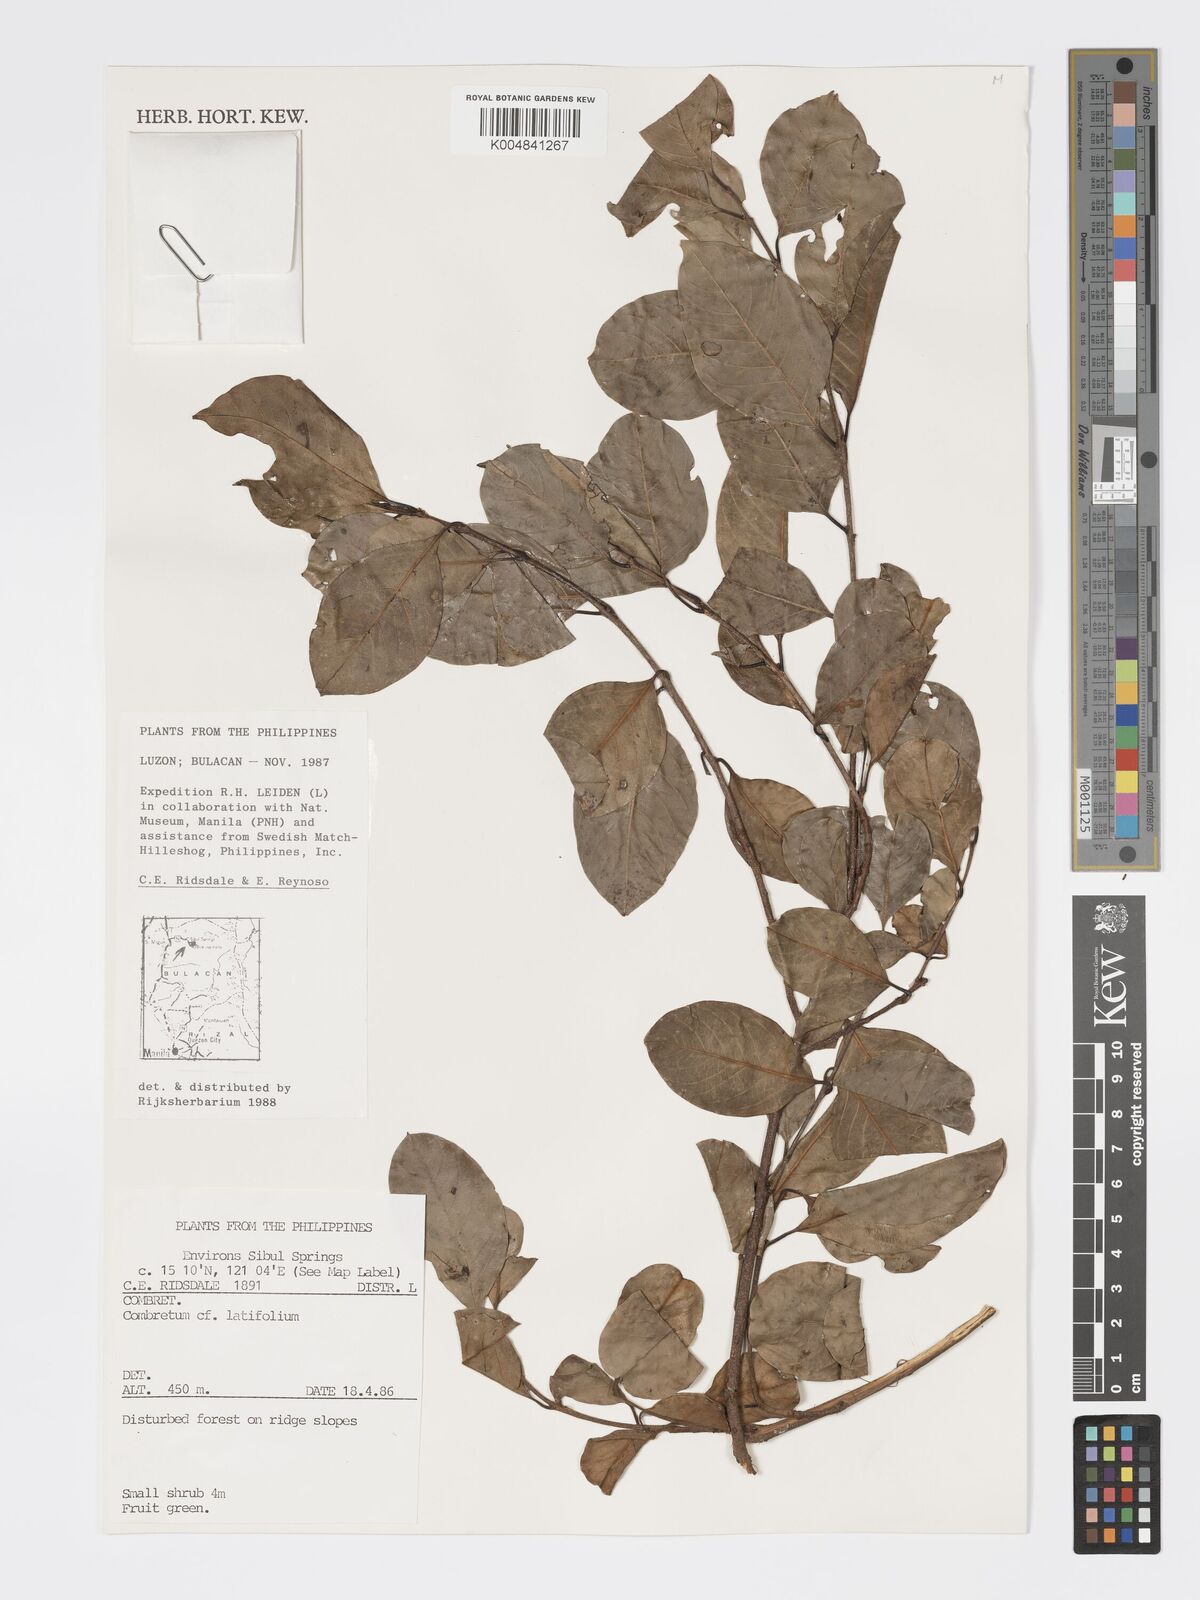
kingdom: Plantae
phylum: Tracheophyta
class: Magnoliopsida
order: Myrtales
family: Combretaceae
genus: Combretum
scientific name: Combretum
